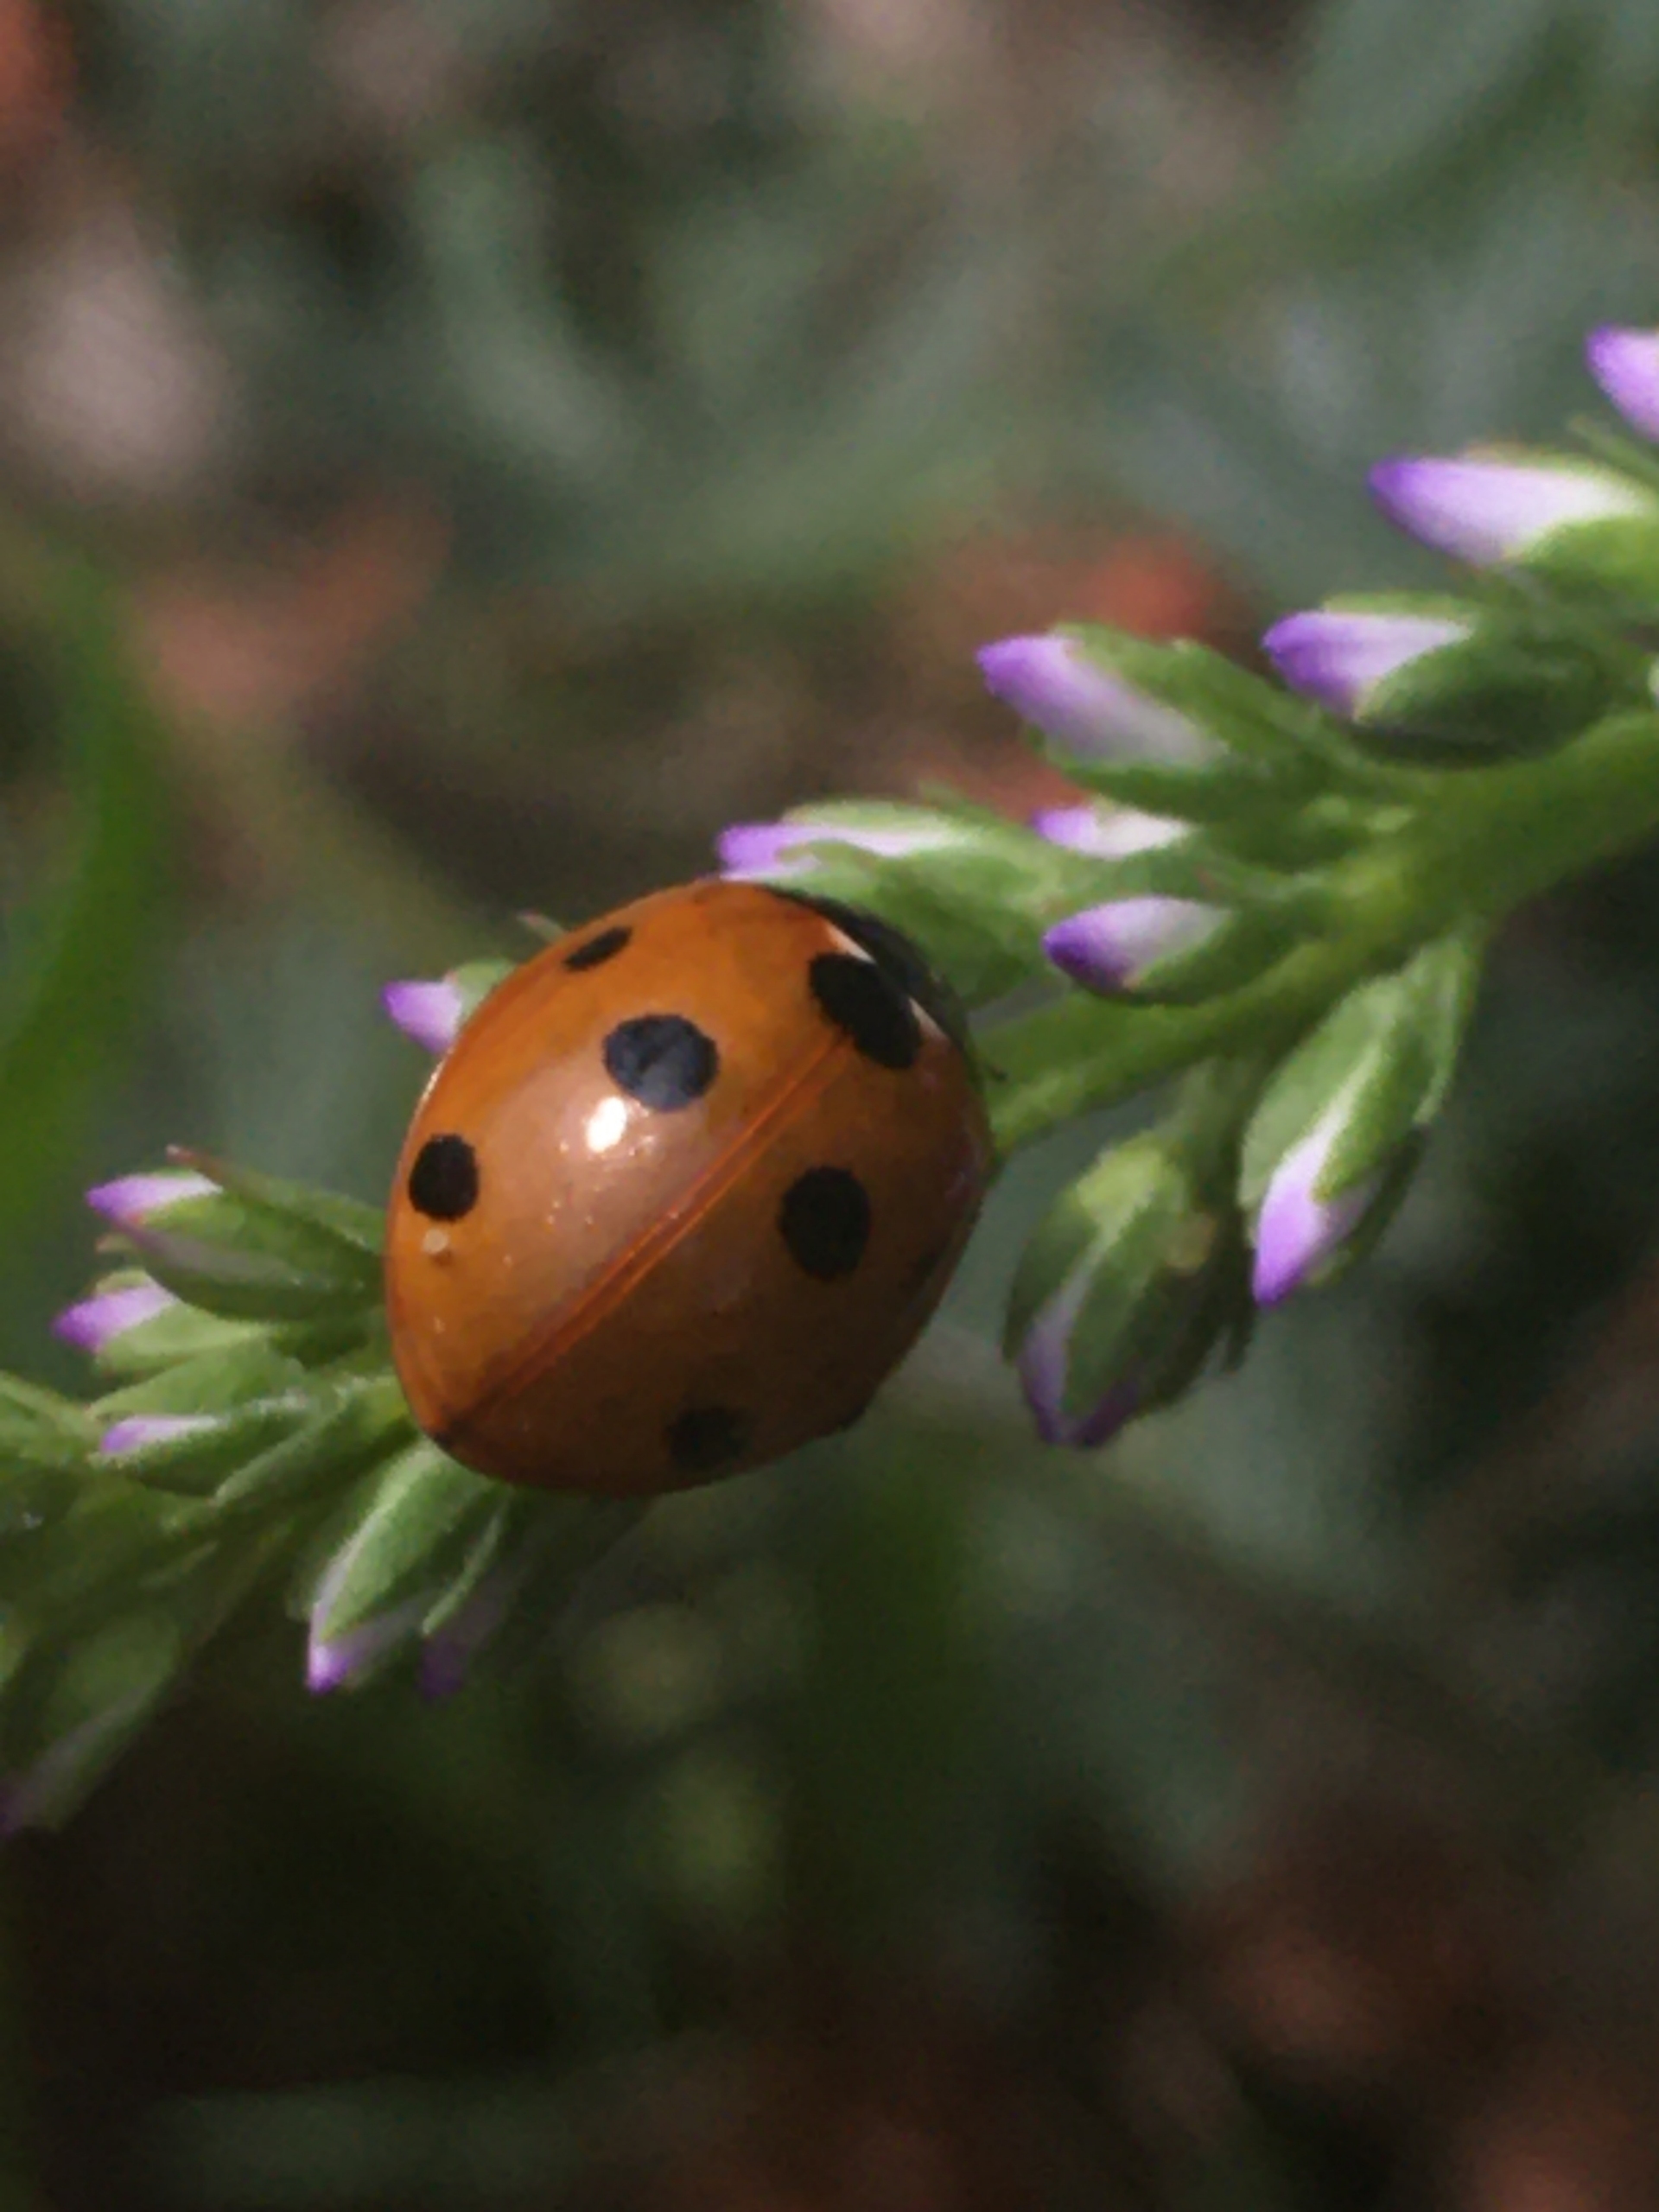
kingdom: Animalia
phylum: Arthropoda
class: Insecta
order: Coleoptera
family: Coccinellidae
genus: Coccinella
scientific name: Coccinella septempunctata
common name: Syvplettet mariehøne
